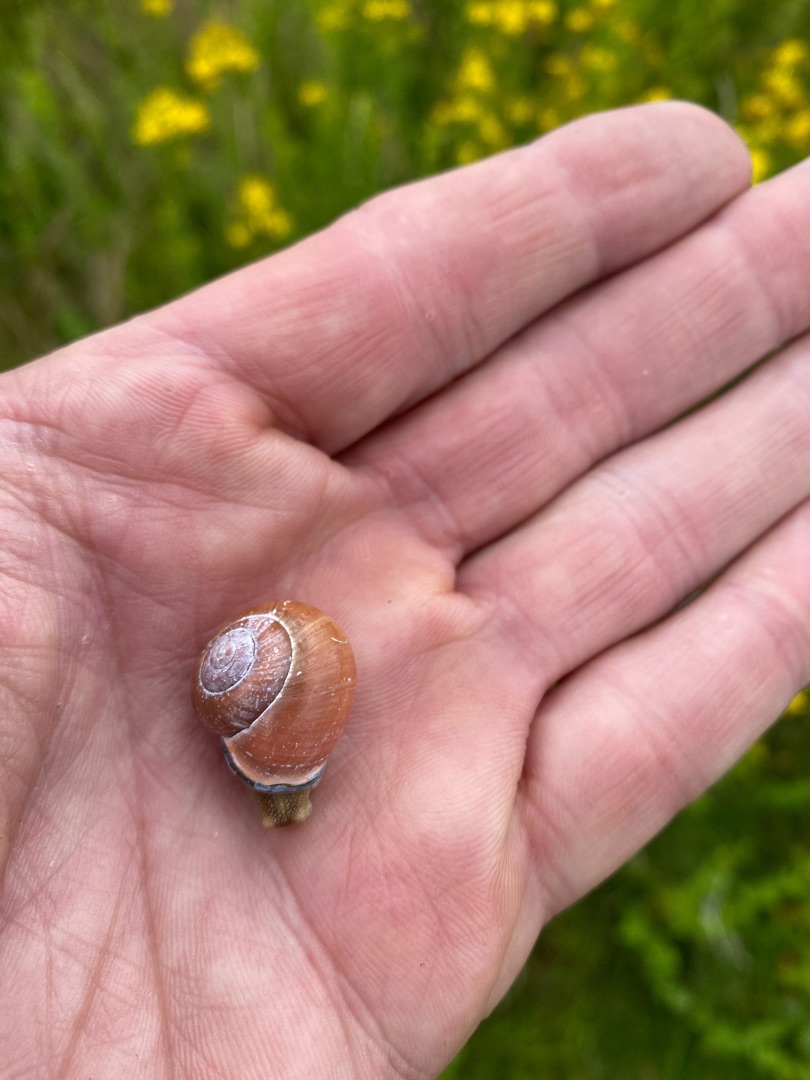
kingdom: Animalia
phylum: Mollusca
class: Gastropoda
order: Stylommatophora
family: Helicidae
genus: Cepaea
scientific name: Cepaea nemoralis
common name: Lundsnegl
